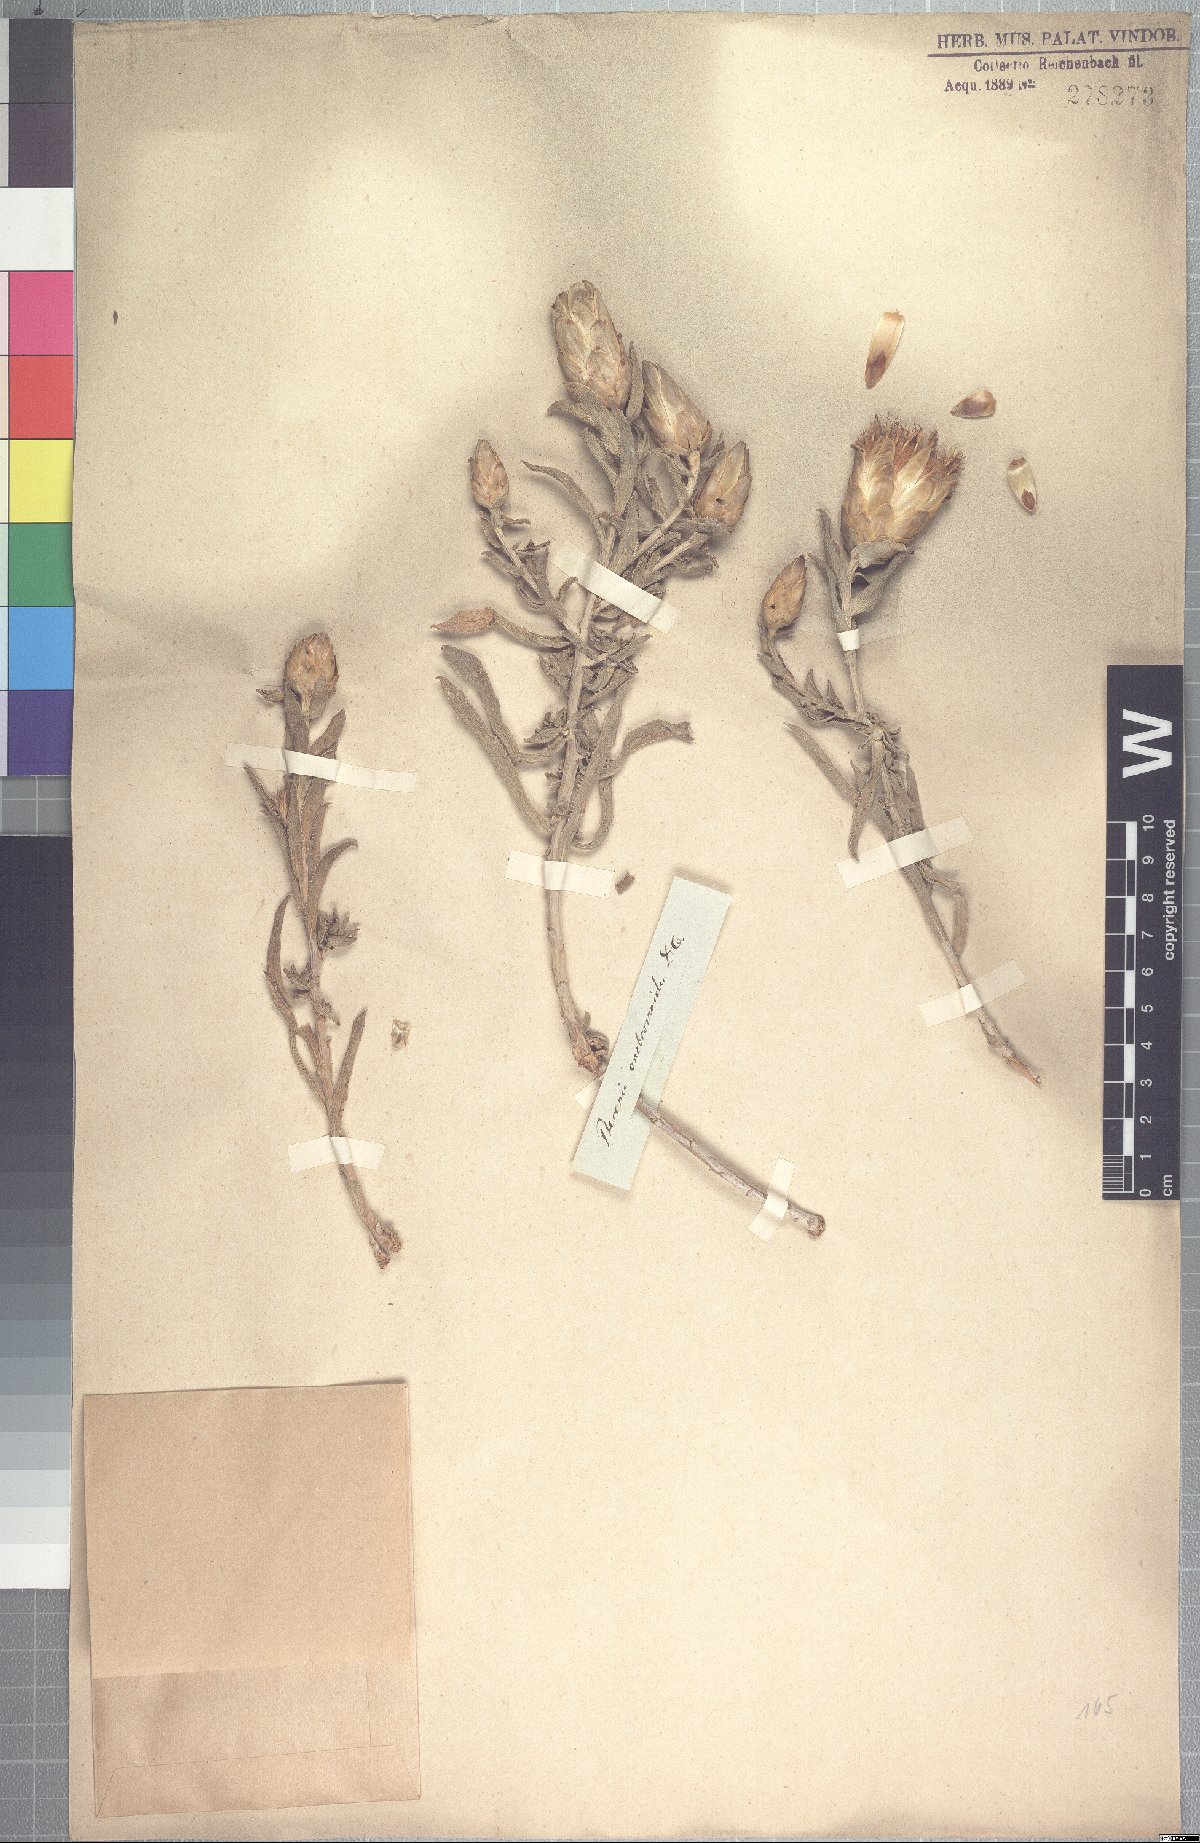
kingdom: Plantae
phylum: Tracheophyta
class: Magnoliopsida
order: Asterales
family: Asteraceae
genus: Pteronia
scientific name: Pteronia onobromoides
